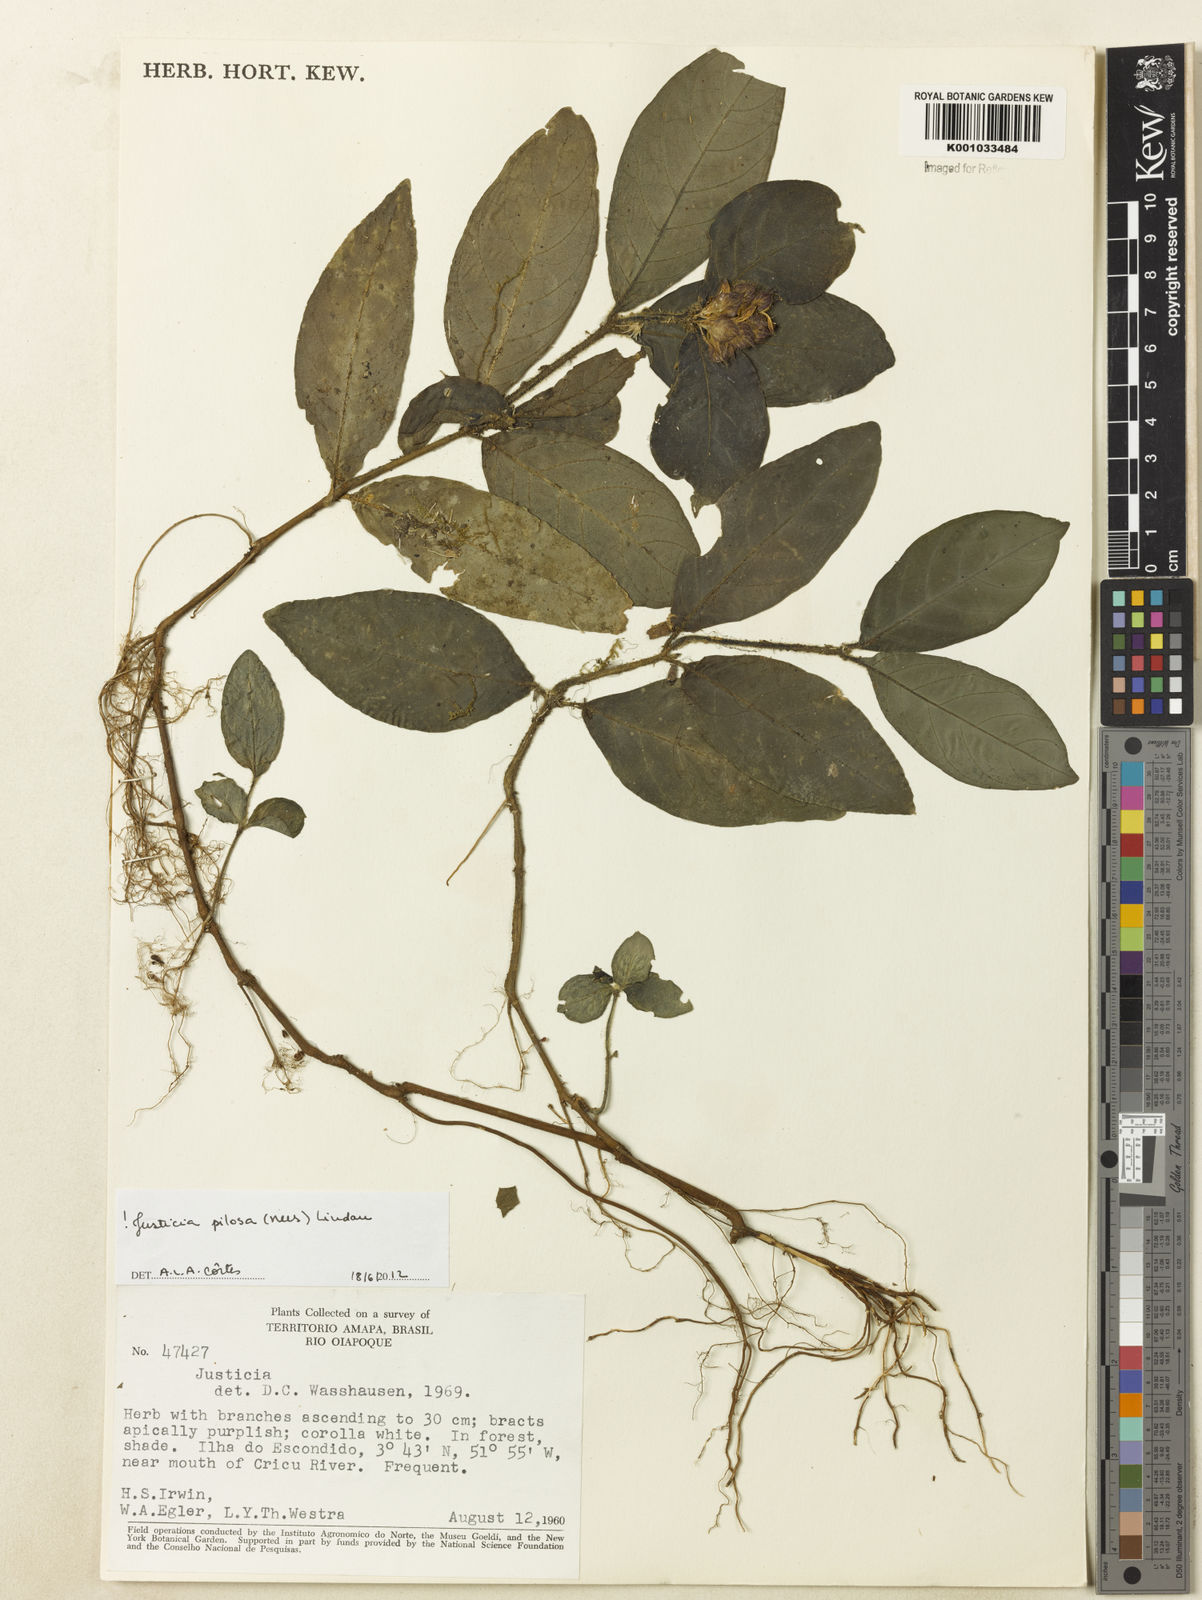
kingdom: Plantae
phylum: Tracheophyta
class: Magnoliopsida
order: Lamiales
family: Acanthaceae
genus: Justicia
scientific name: Justicia pilosa
